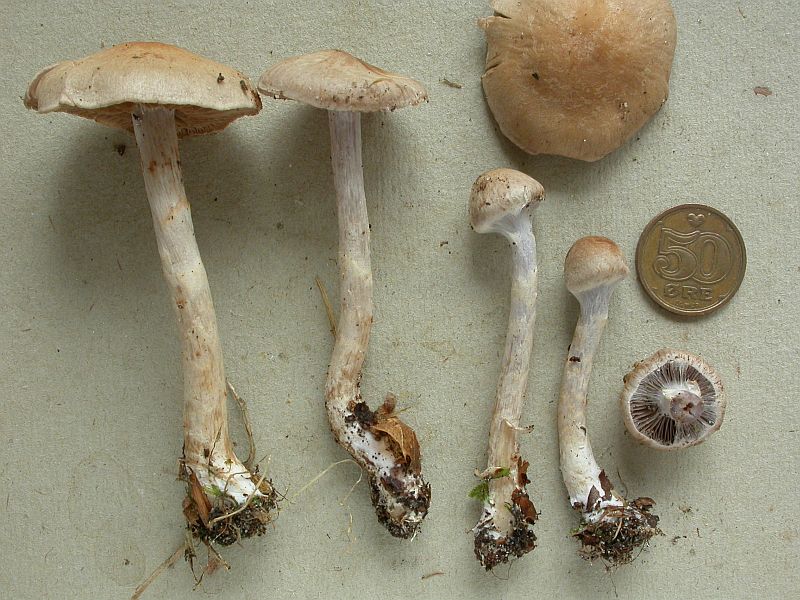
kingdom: Fungi
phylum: Basidiomycota
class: Agaricomycetes
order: Agaricales
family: Cortinariaceae
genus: Cortinarius
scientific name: Cortinarius anomalus
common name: Variable webcap
